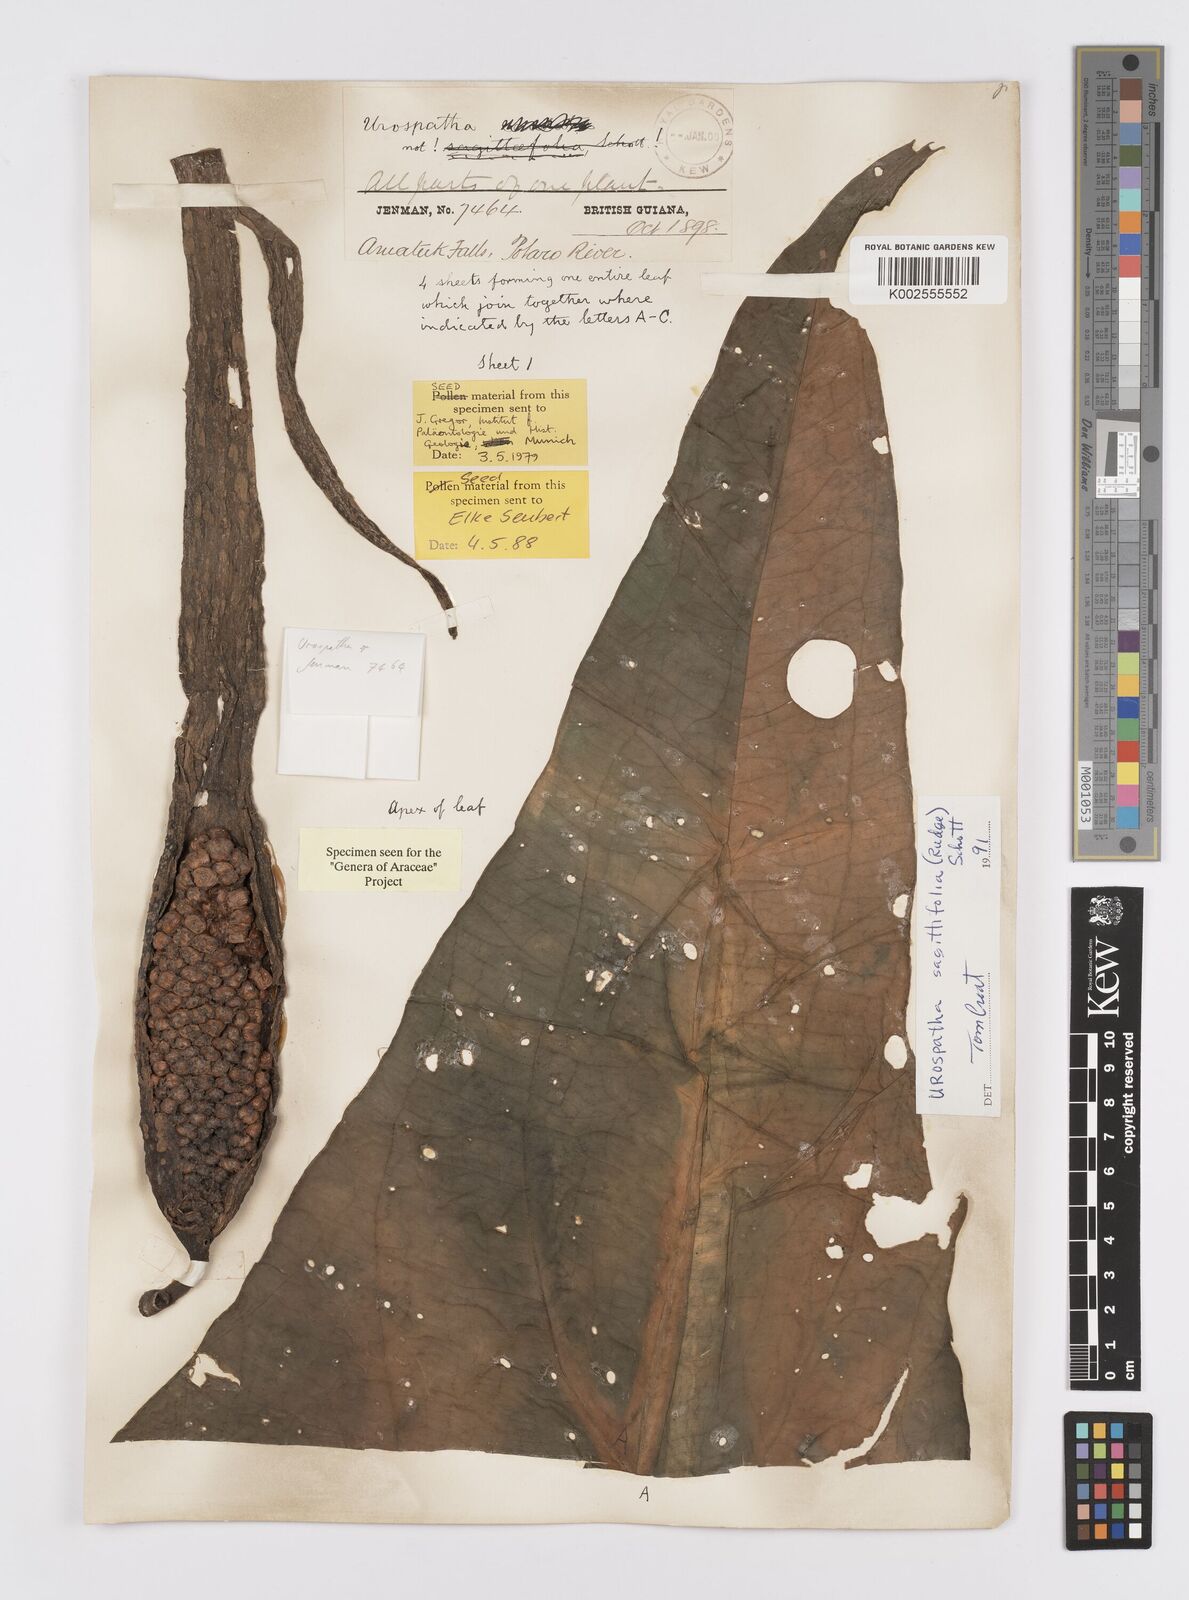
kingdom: Plantae
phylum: Tracheophyta
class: Liliopsida
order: Alismatales
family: Araceae
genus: Urospatha
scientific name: Urospatha sagittifolia
